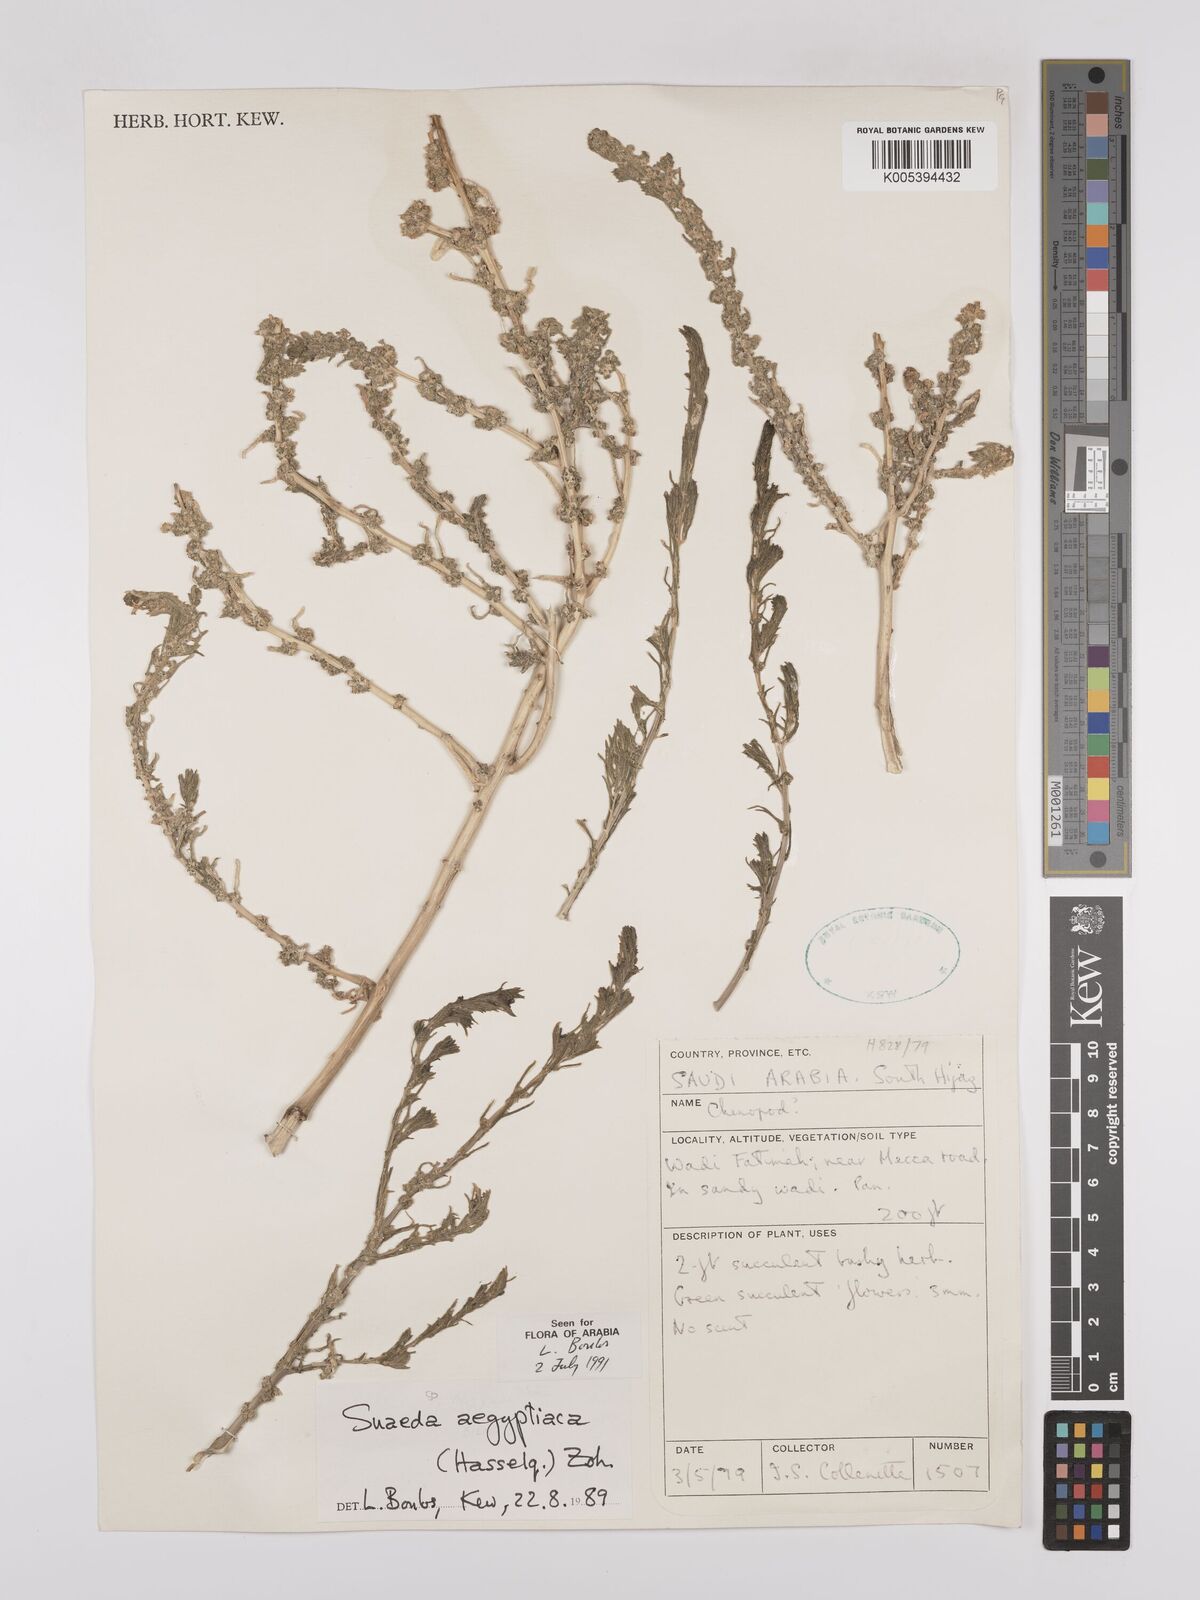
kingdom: Plantae
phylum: Tracheophyta
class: Magnoliopsida
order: Caryophyllales
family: Amaranthaceae
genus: Suaeda
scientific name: Suaeda aegyptiaca
